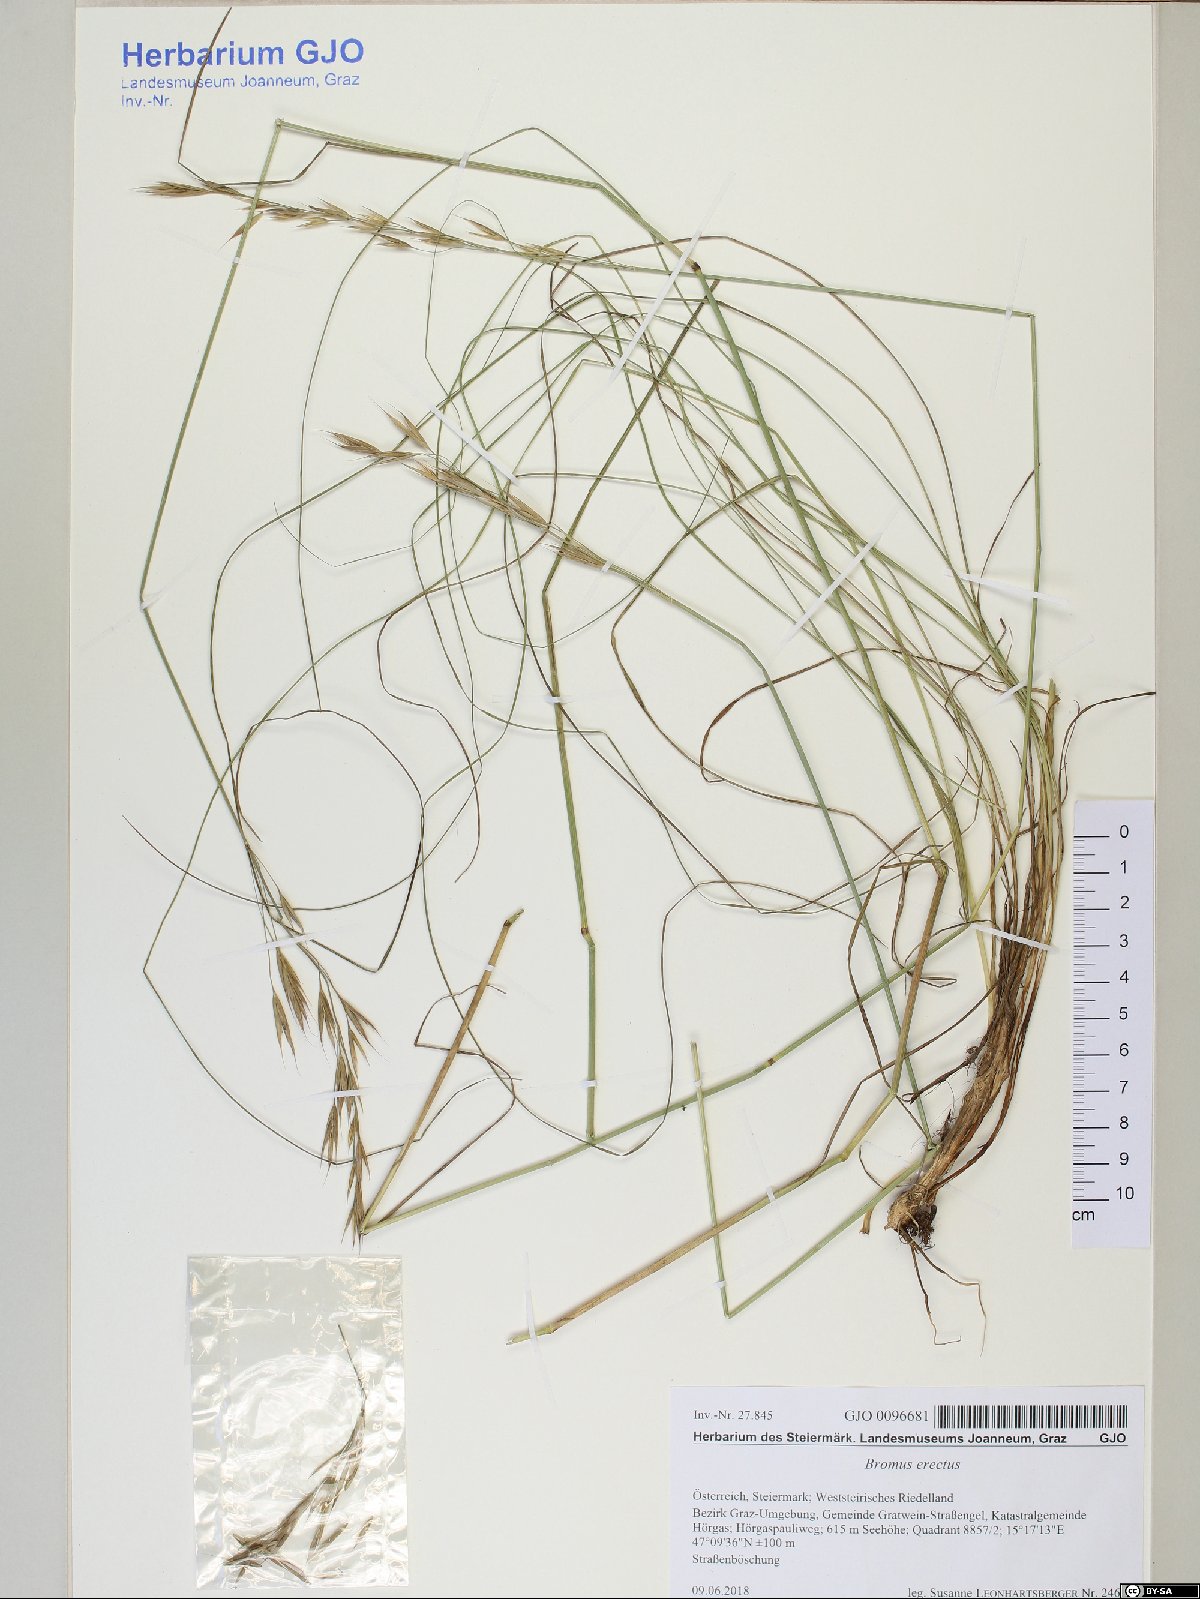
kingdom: Plantae
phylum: Tracheophyta
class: Liliopsida
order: Poales
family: Poaceae
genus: Bromus
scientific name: Bromus erectus
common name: Erect brome
